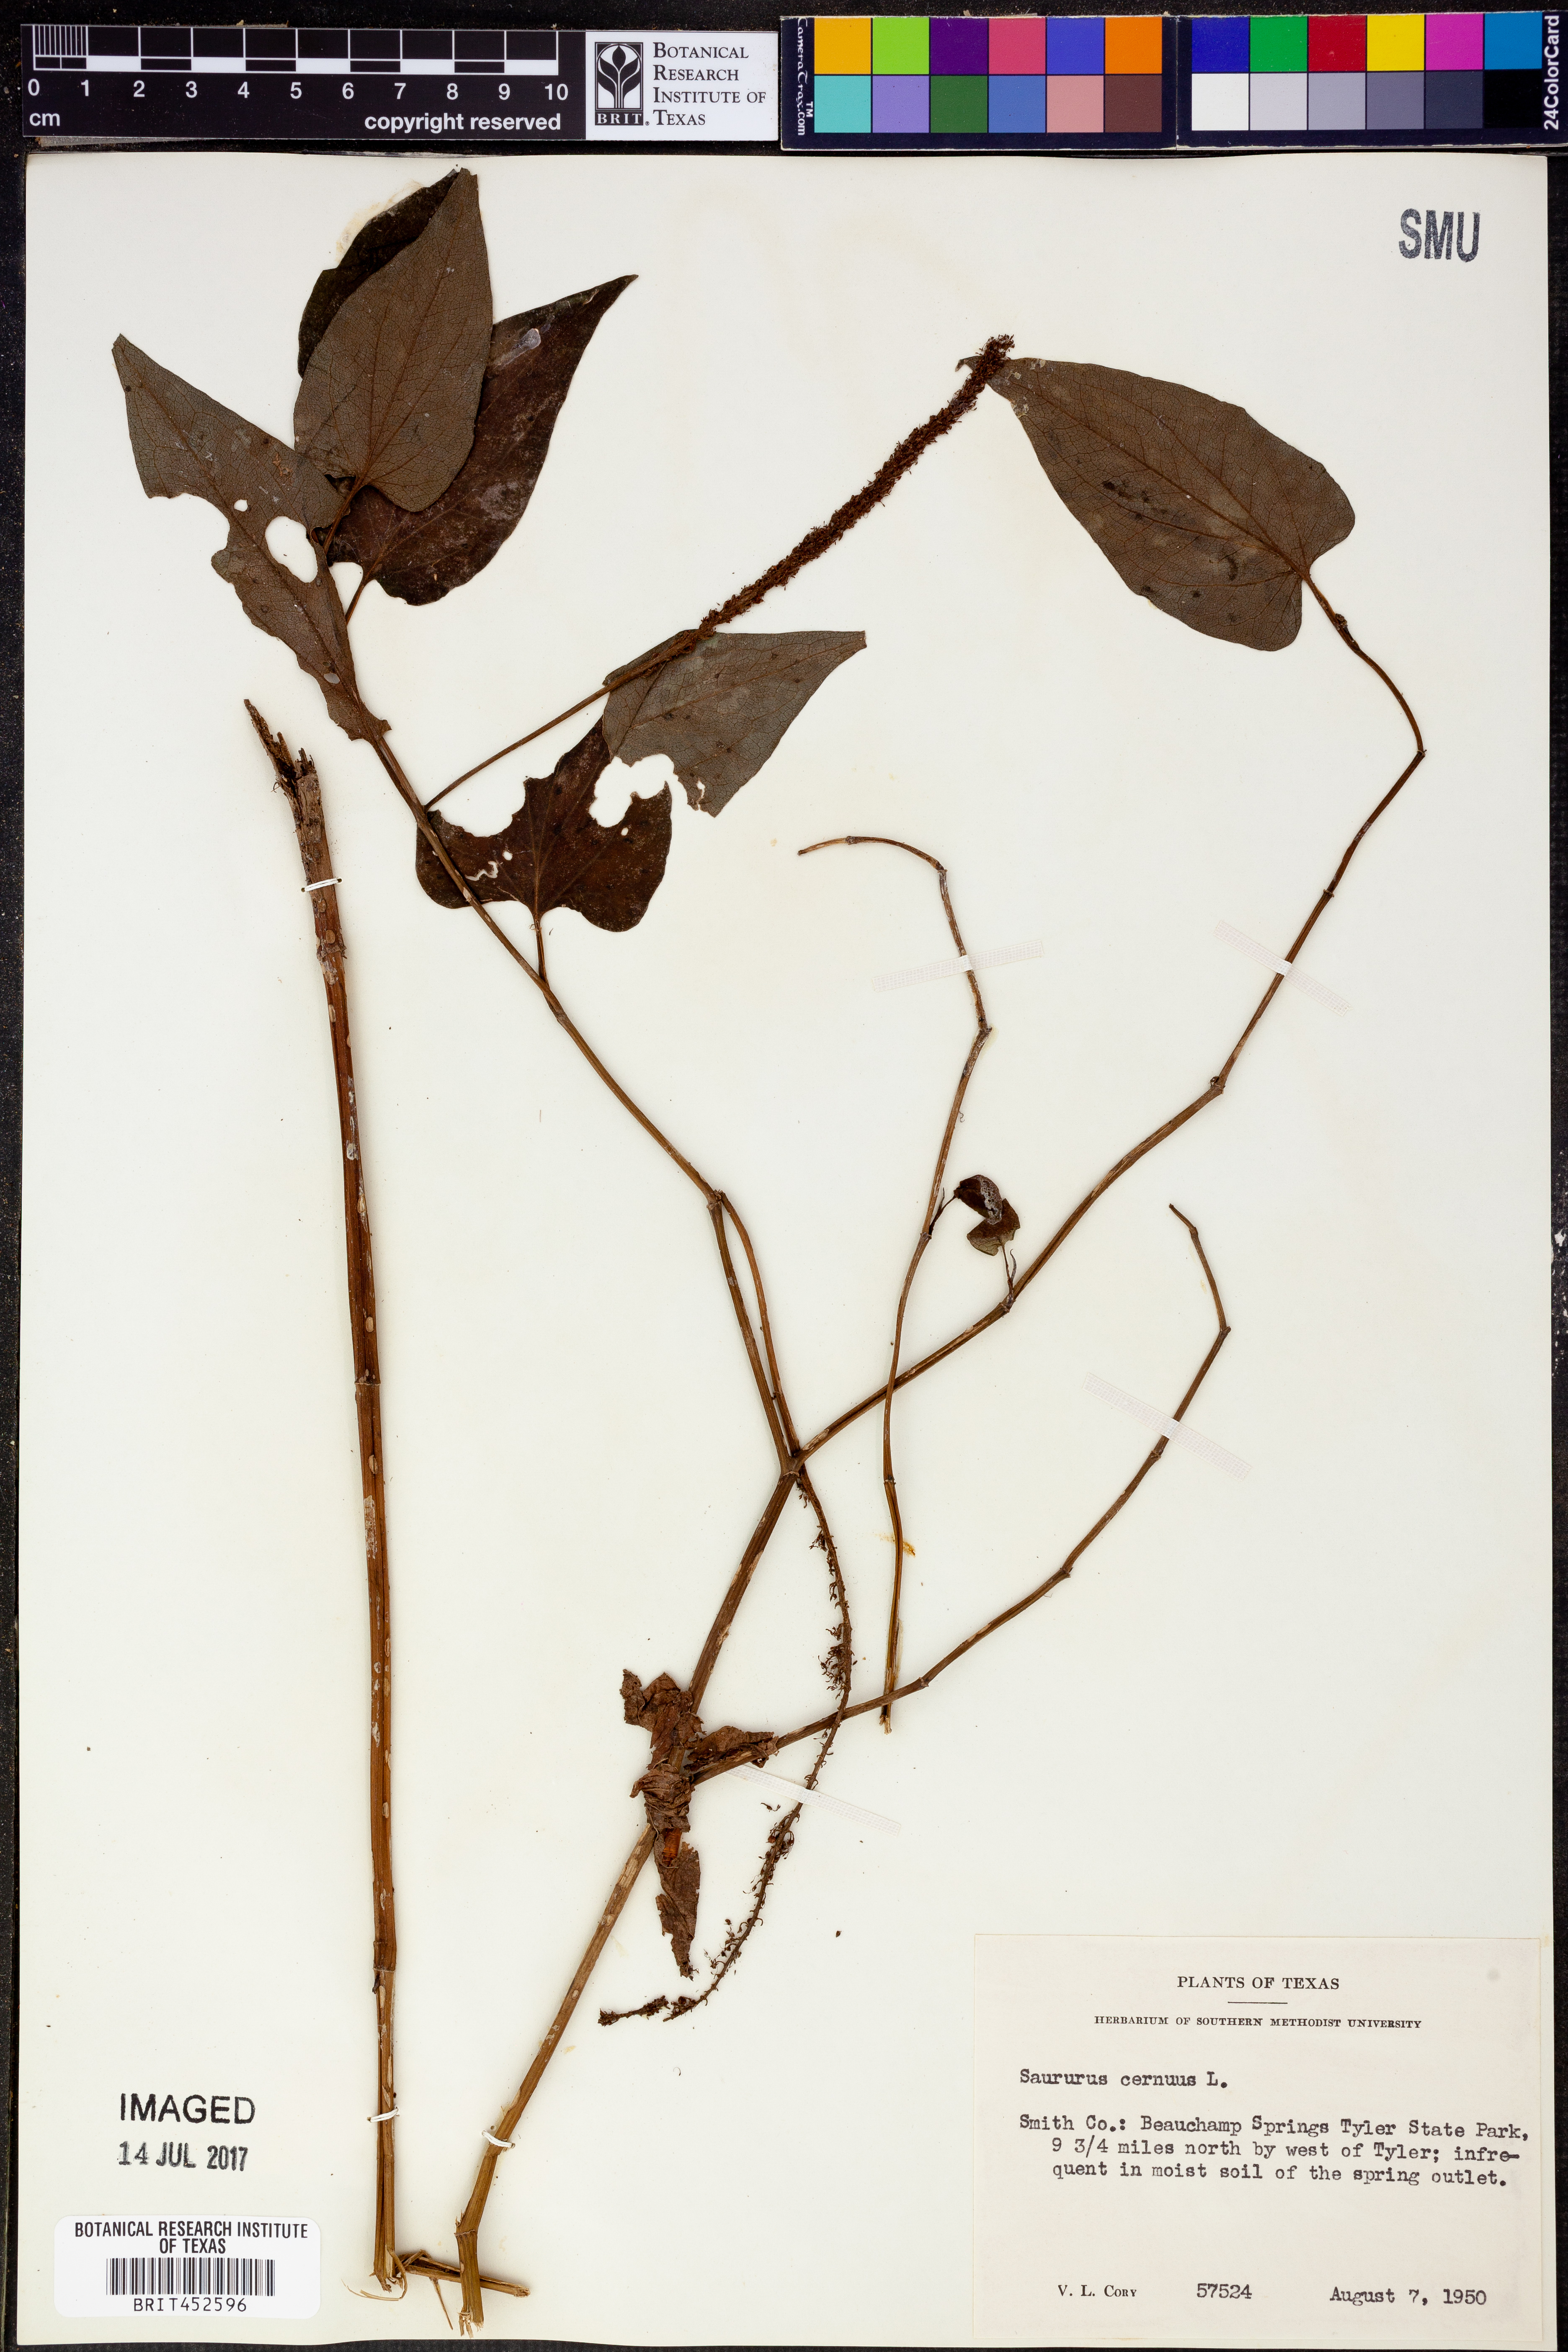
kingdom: Plantae
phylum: Tracheophyta
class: Magnoliopsida
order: Piperales
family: Saururaceae
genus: Saururus
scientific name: Saururus cernuus
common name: Lizard's-tail
